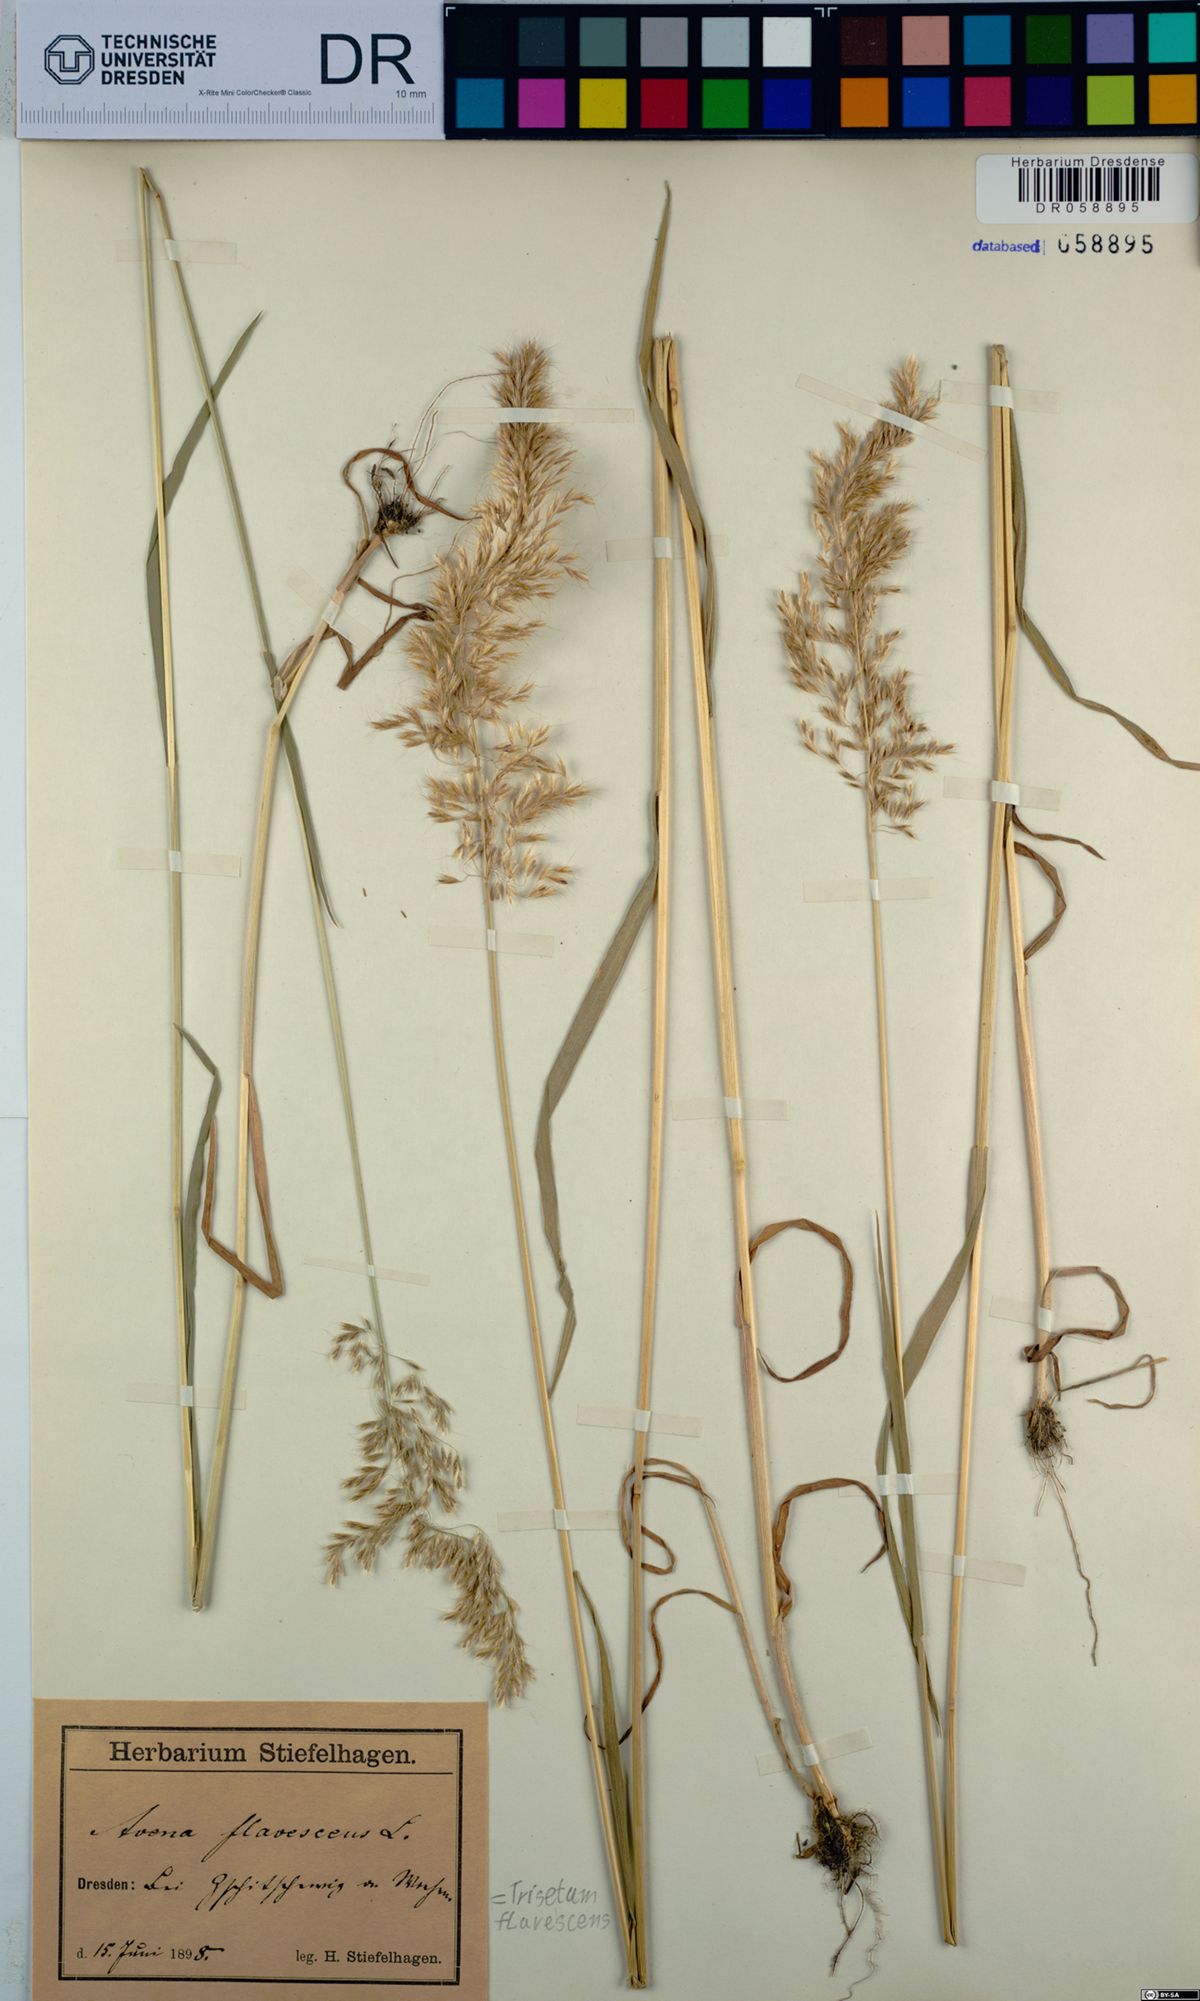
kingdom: Plantae
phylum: Tracheophyta
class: Liliopsida
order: Poales
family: Poaceae
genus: Trisetum
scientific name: Trisetum flavescens
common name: Yellow oat-grass
